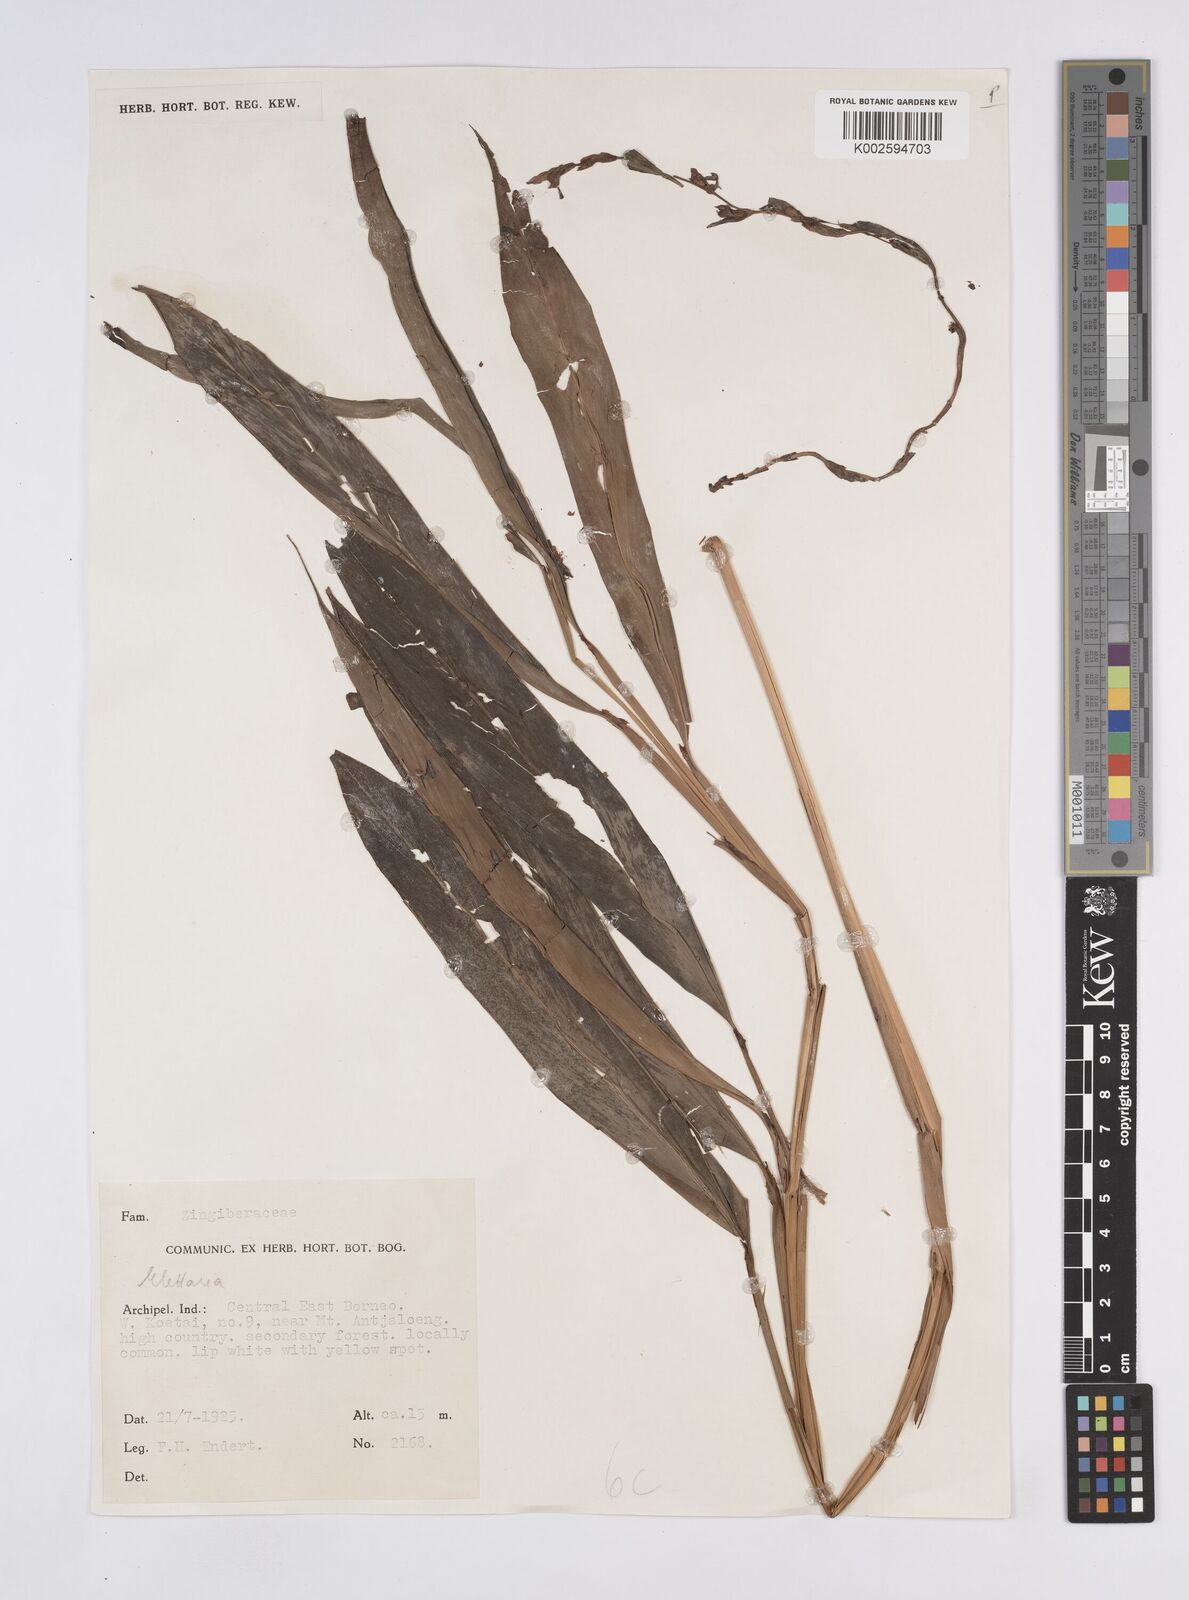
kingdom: Plantae
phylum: Tracheophyta
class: Liliopsida
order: Zingiberales
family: Zingiberaceae
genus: Elettaria
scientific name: Elettaria
